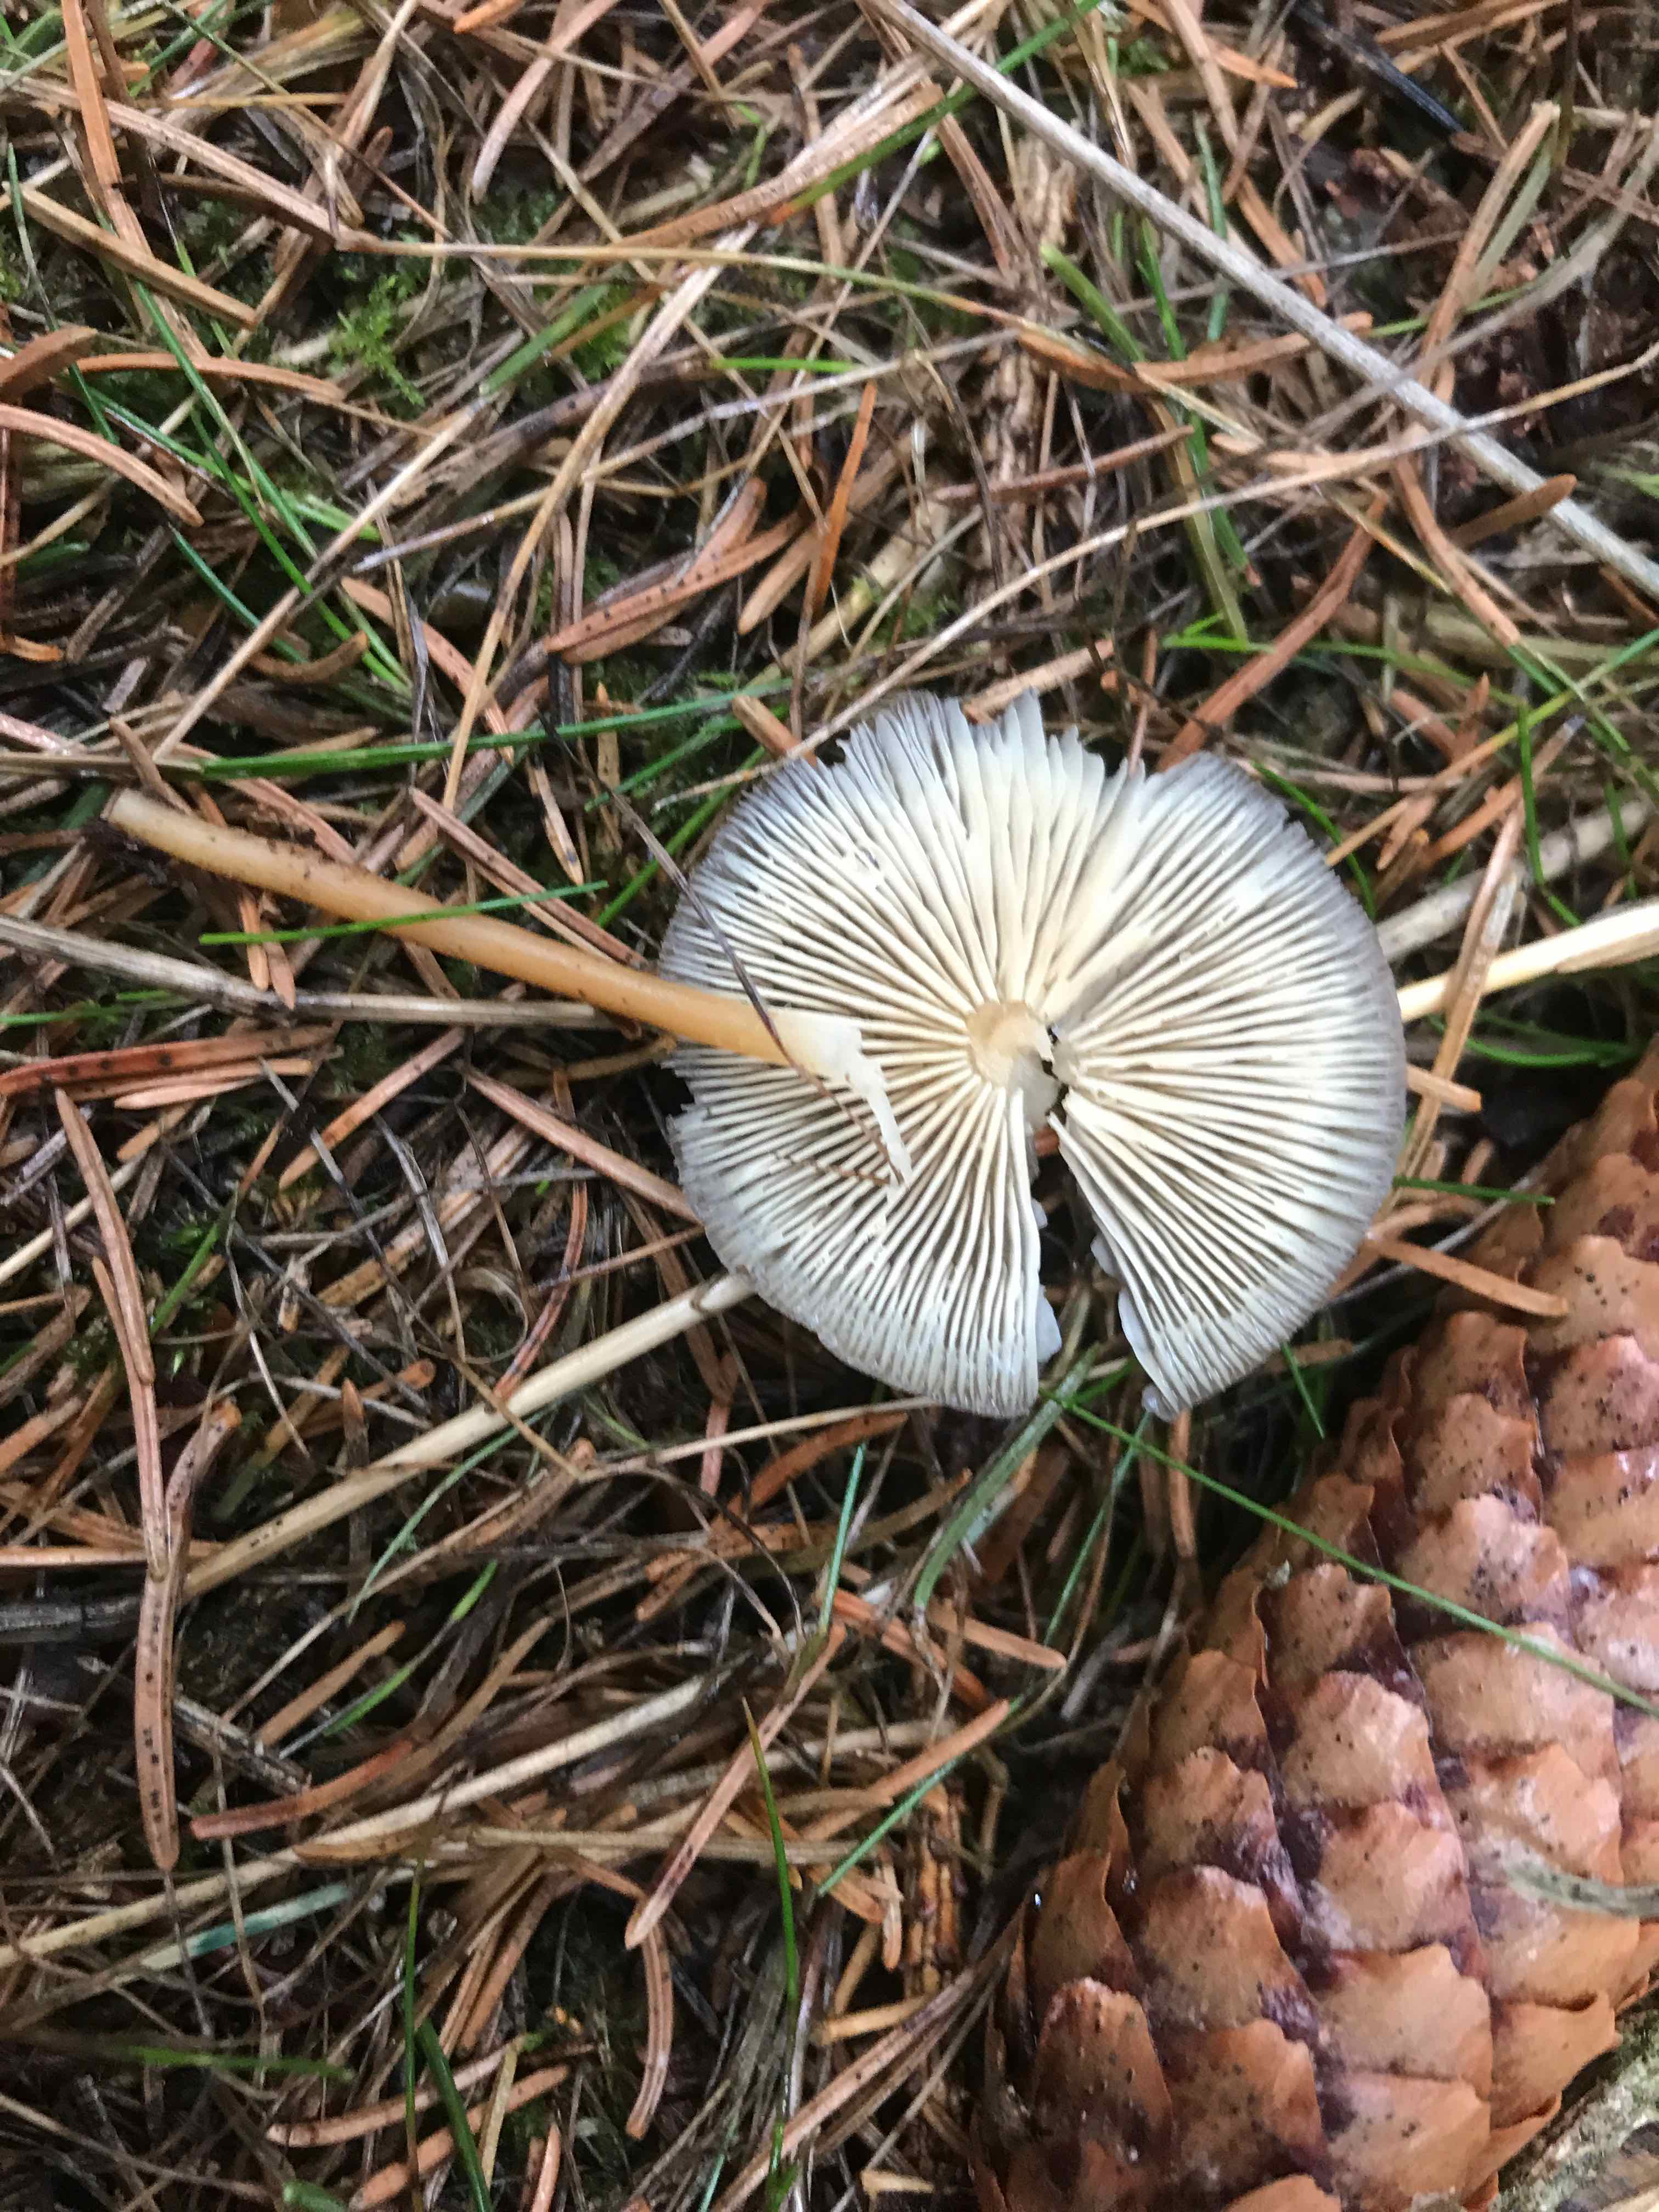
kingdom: Fungi
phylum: Basidiomycota
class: Agaricomycetes
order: Agaricales
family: Physalacriaceae
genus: Strobilurus
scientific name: Strobilurus esculentus
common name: gran-koglehat
